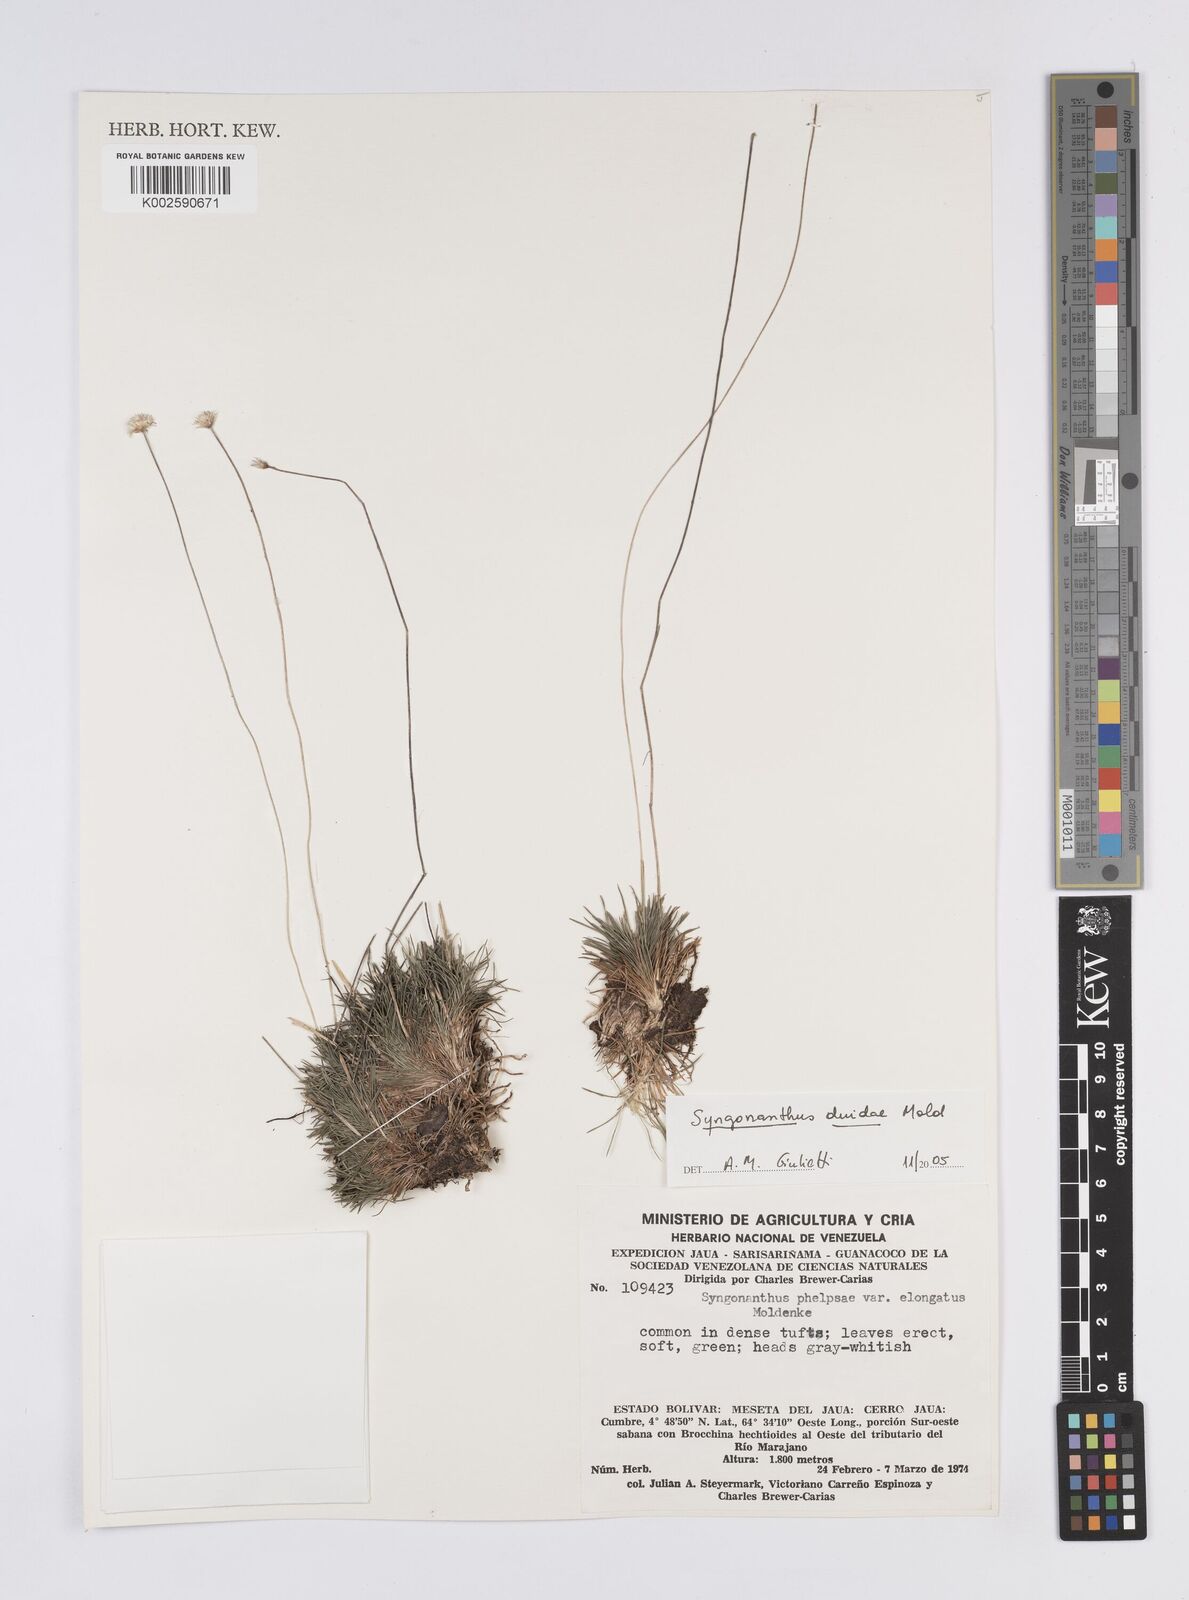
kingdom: Plantae
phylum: Tracheophyta
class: Liliopsida
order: Poales
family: Eriocaulaceae
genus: Syngonanthus
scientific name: Syngonanthus duidae
